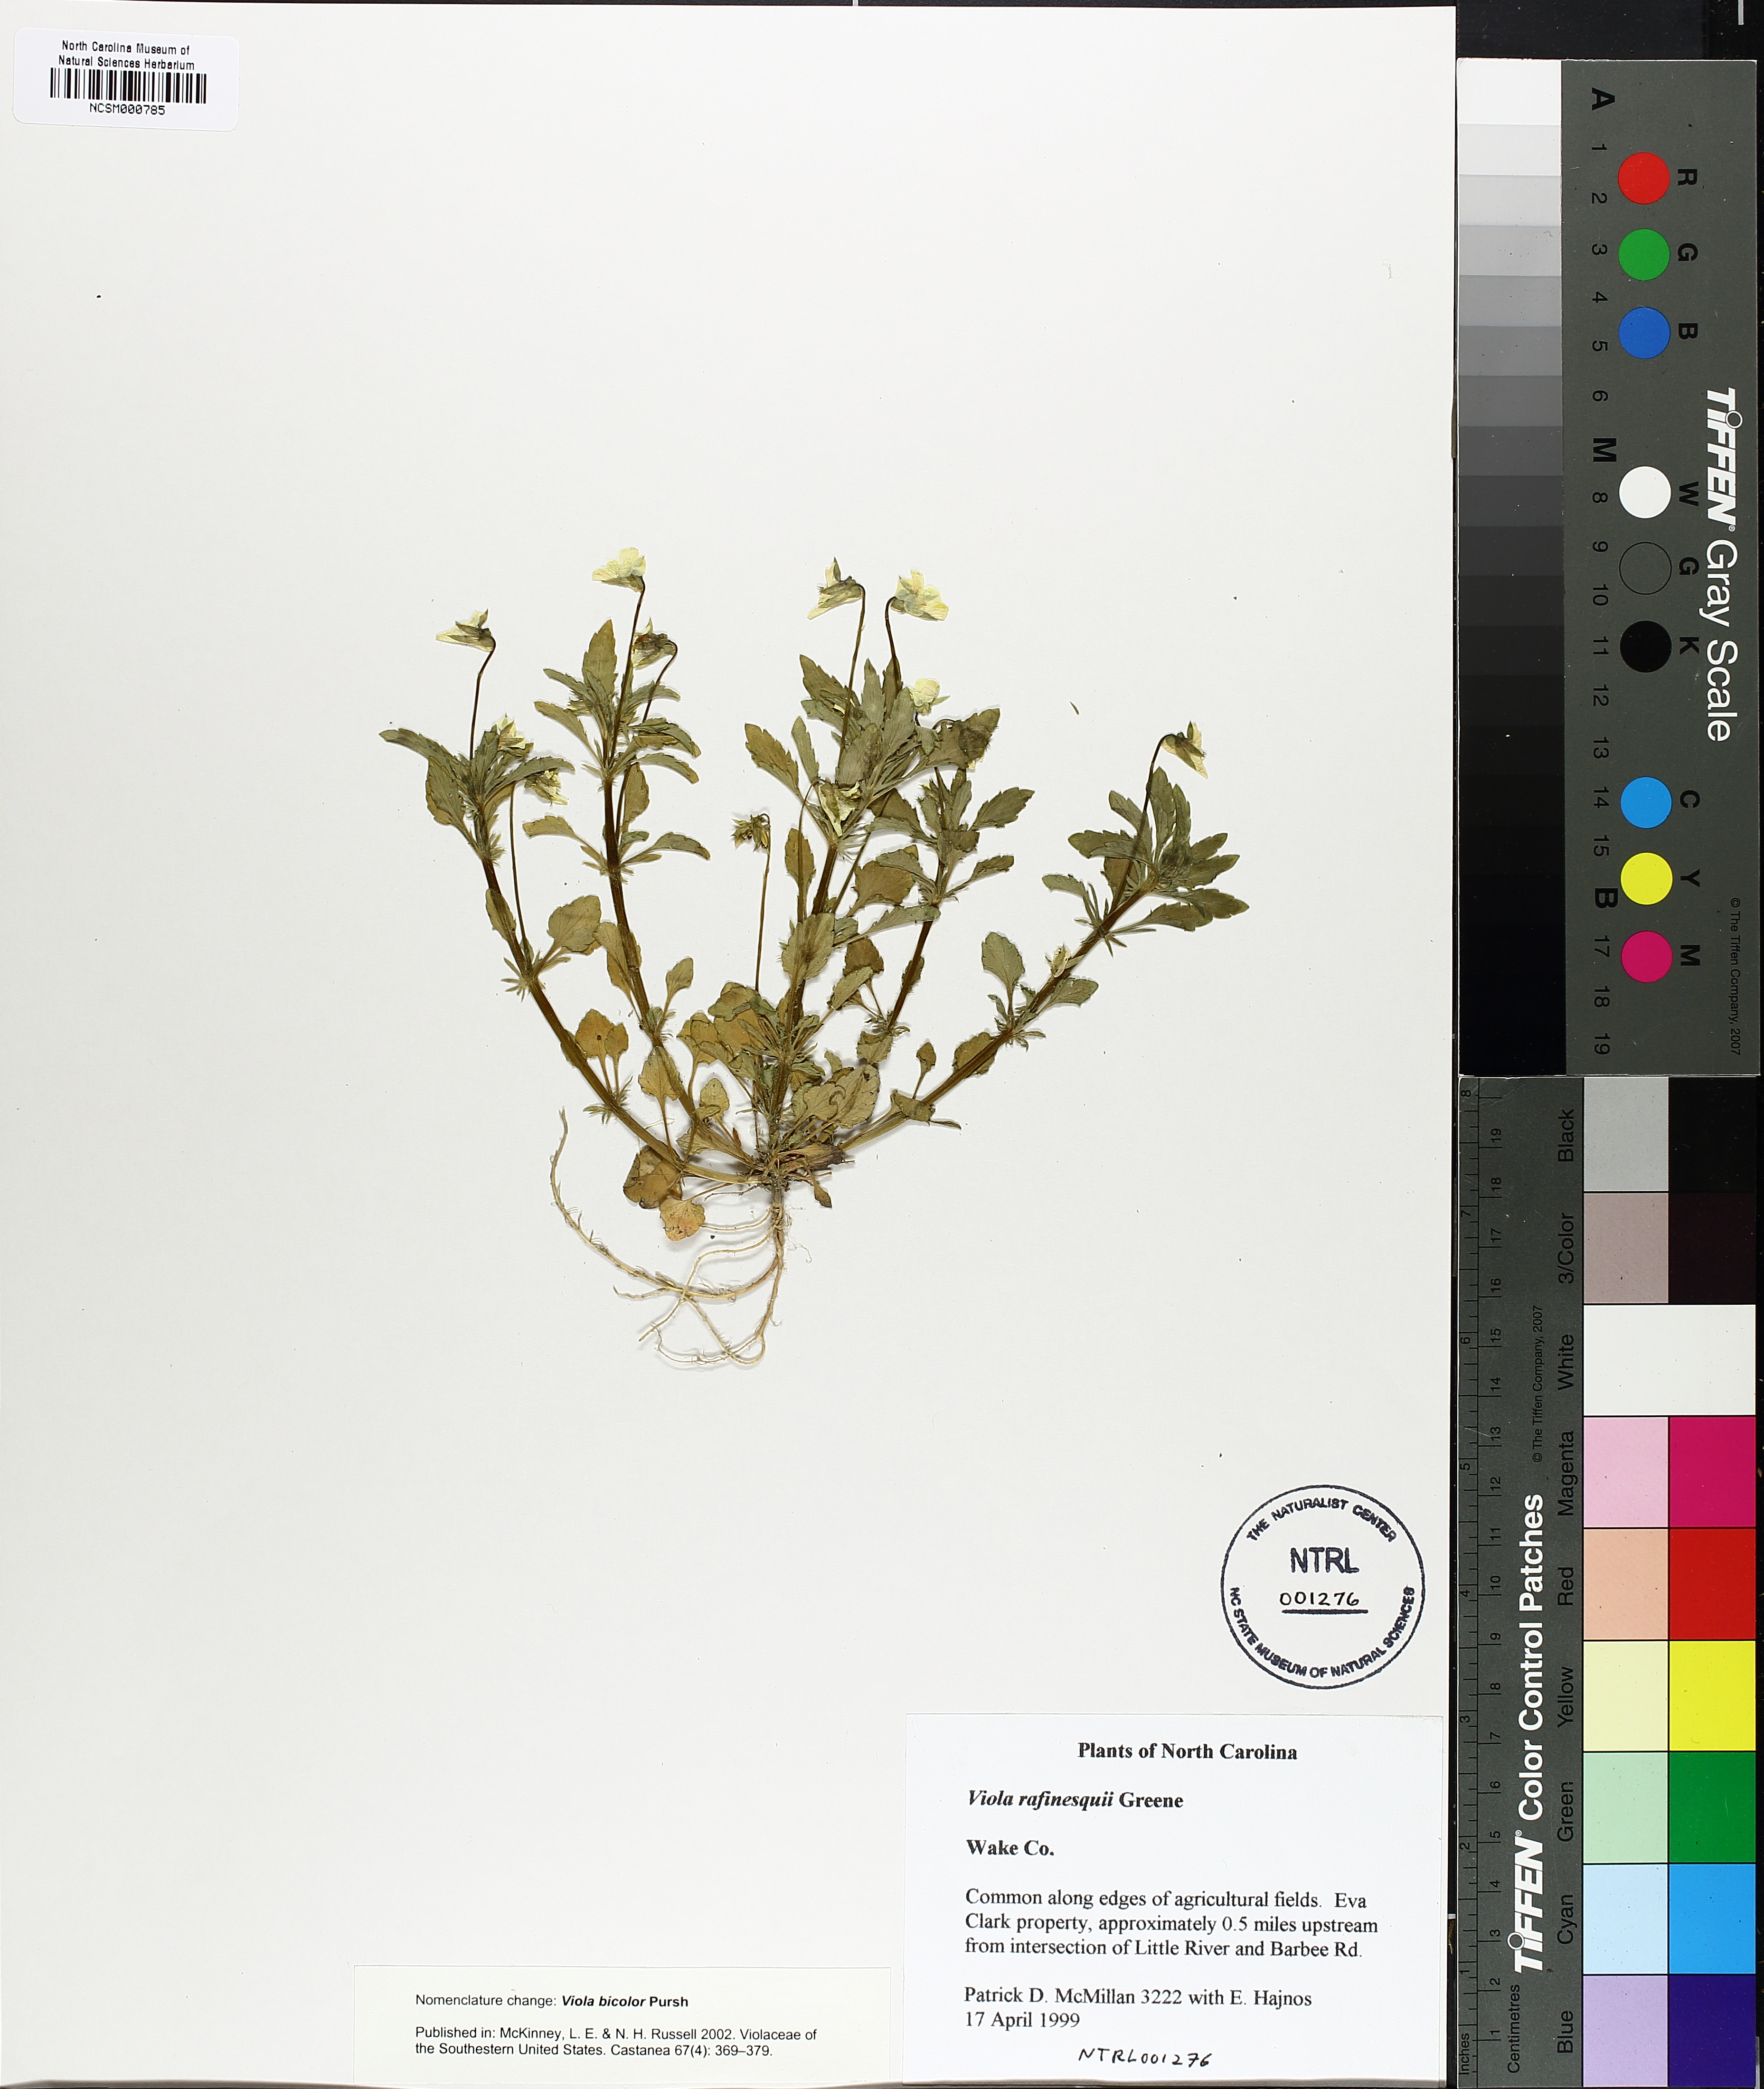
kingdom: Plantae
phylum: Tracheophyta
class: Magnoliopsida
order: Malpighiales
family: Violaceae
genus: Viola
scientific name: Viola rafinesquei
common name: American field pansy
